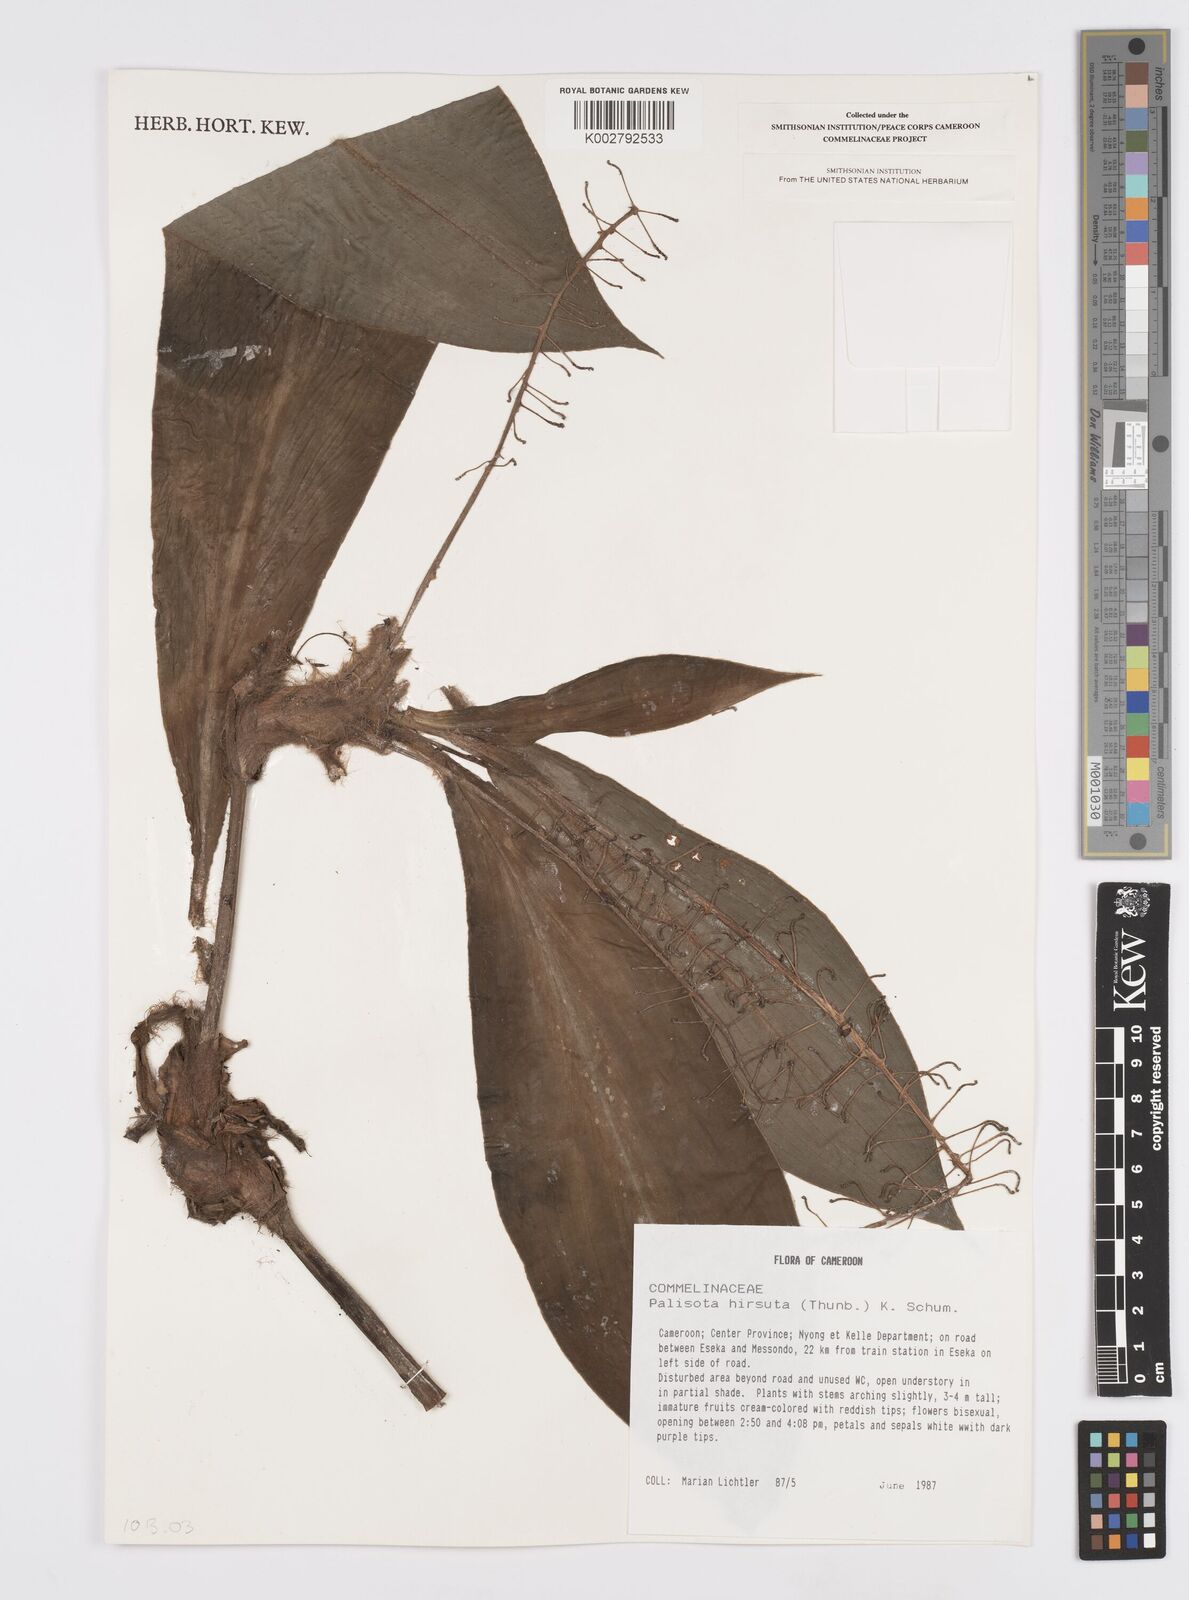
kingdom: Plantae
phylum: Tracheophyta
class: Liliopsida
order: Commelinales
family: Commelinaceae
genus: Palisota
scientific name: Palisota hirsuta
